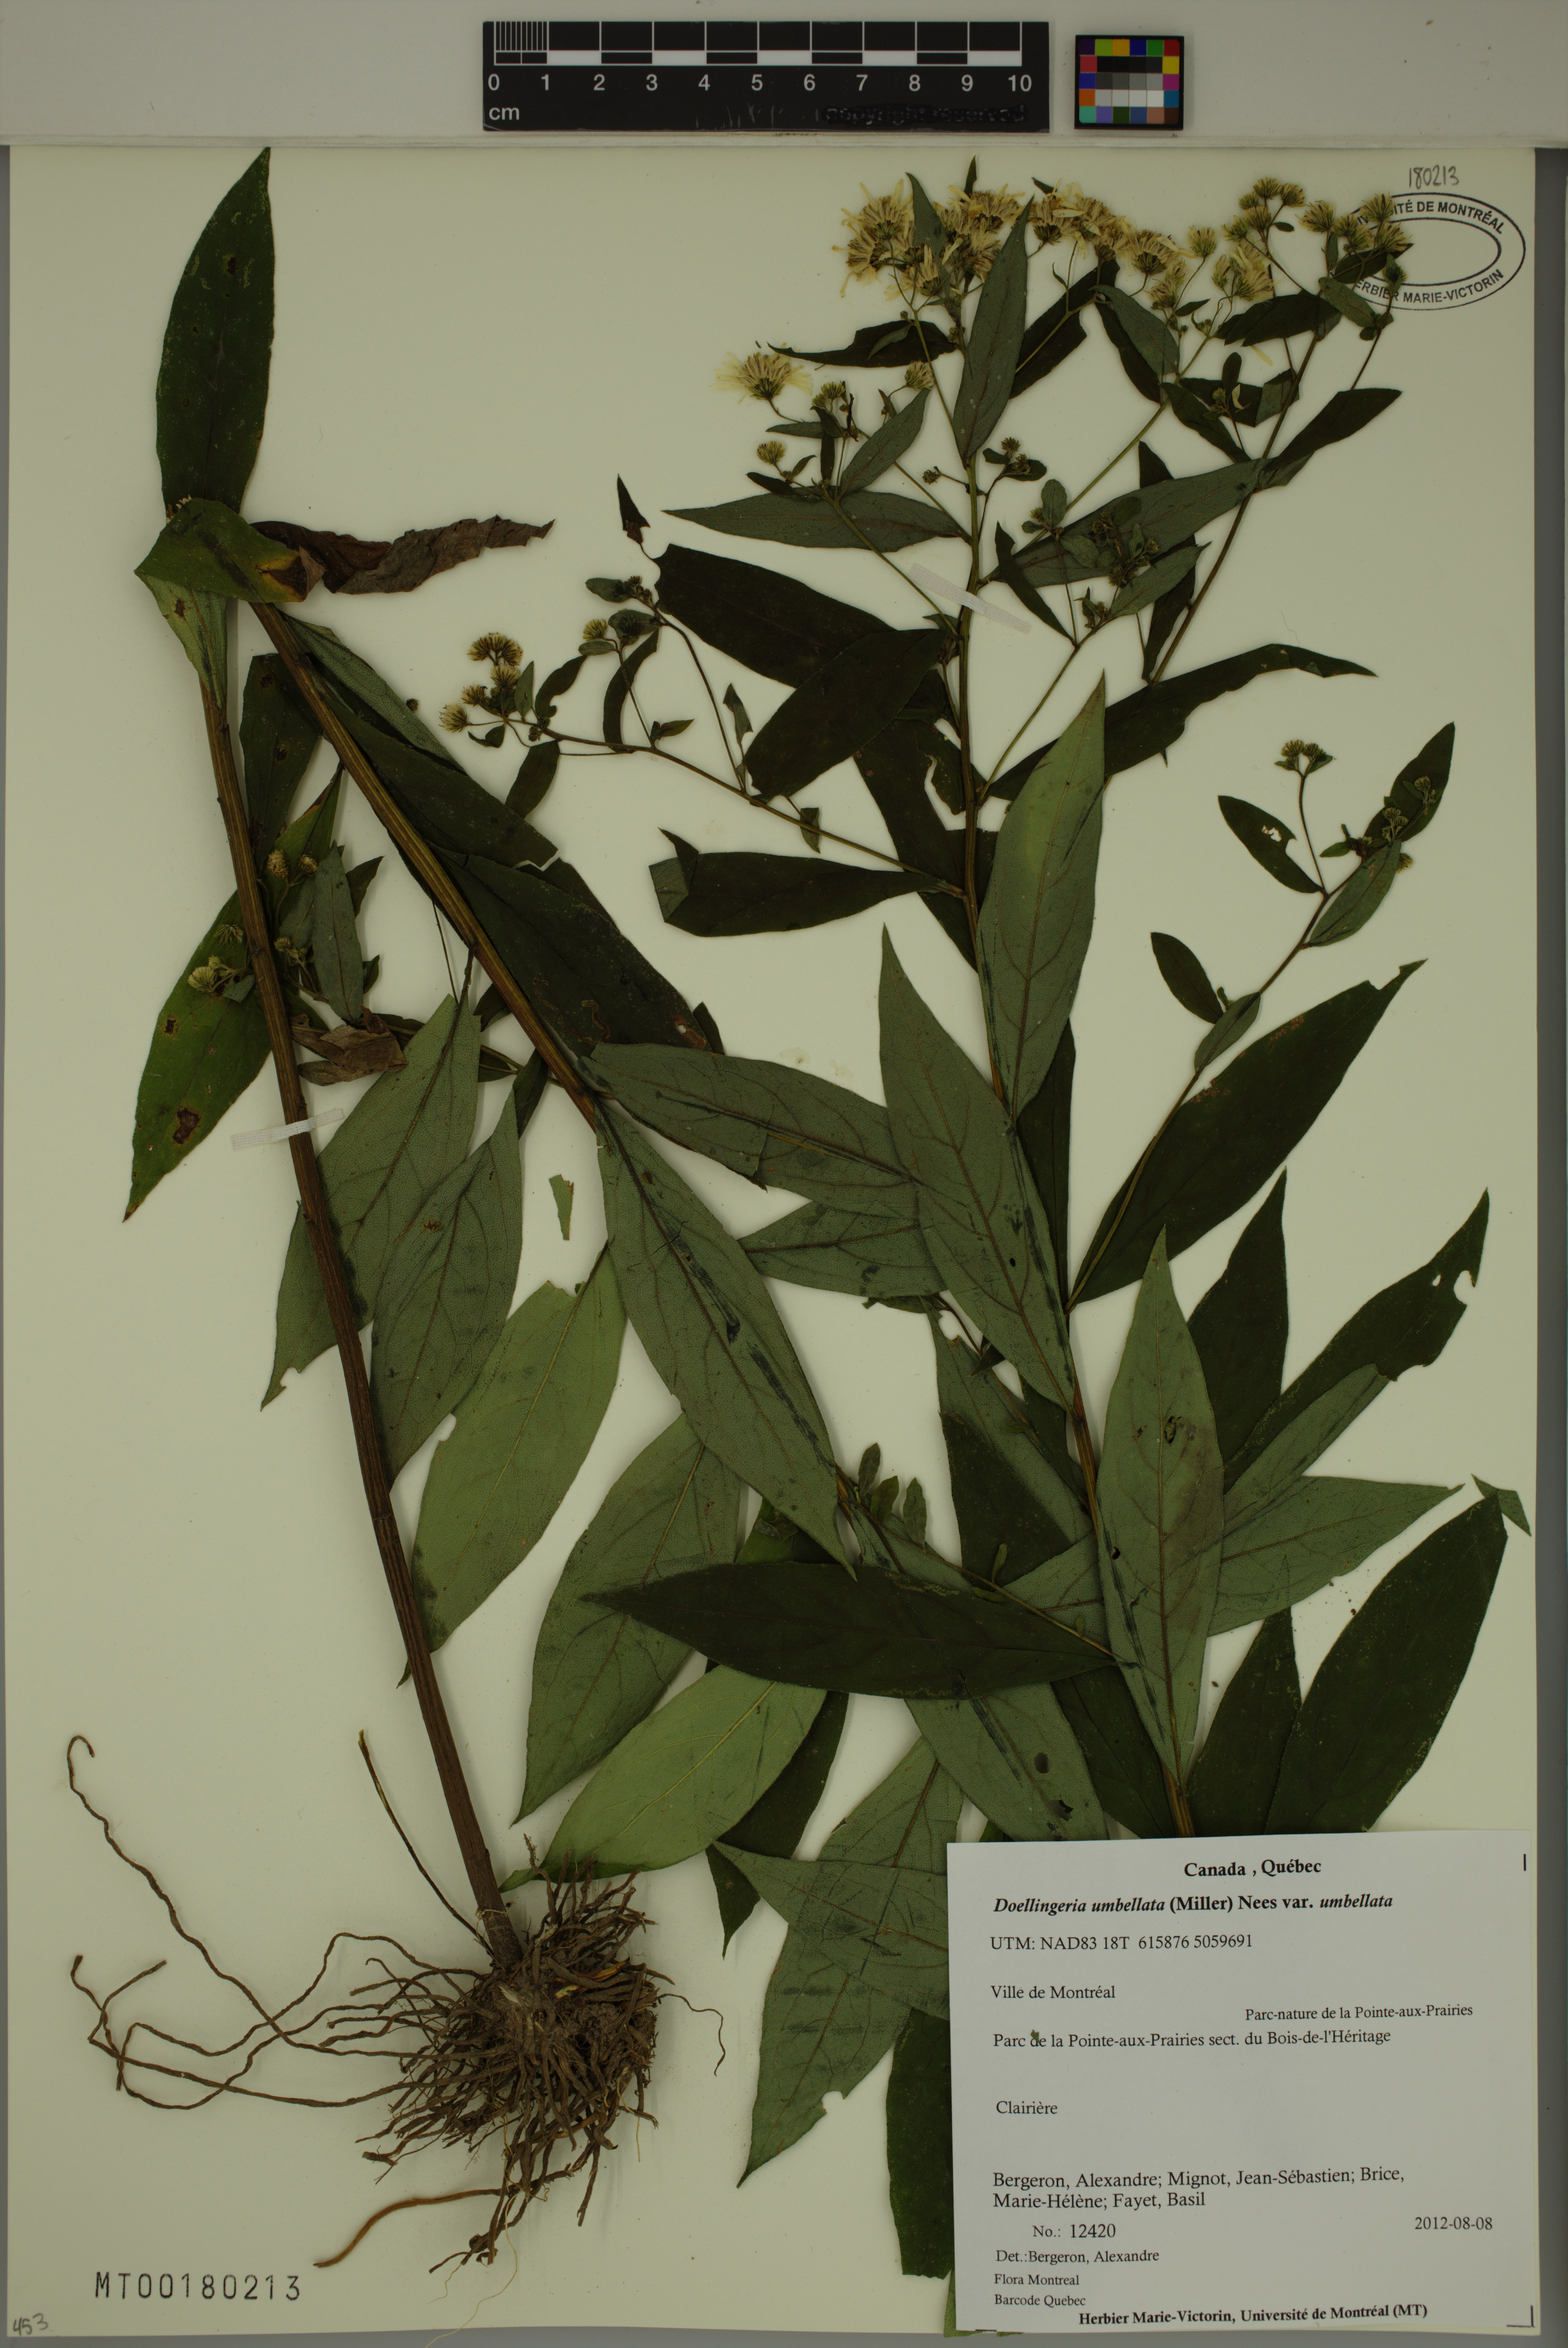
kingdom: Plantae
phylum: Tracheophyta
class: Magnoliopsida
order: Asterales
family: Asteraceae
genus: Doellingeria
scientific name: Doellingeria umbellata
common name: Flat-top white aster
